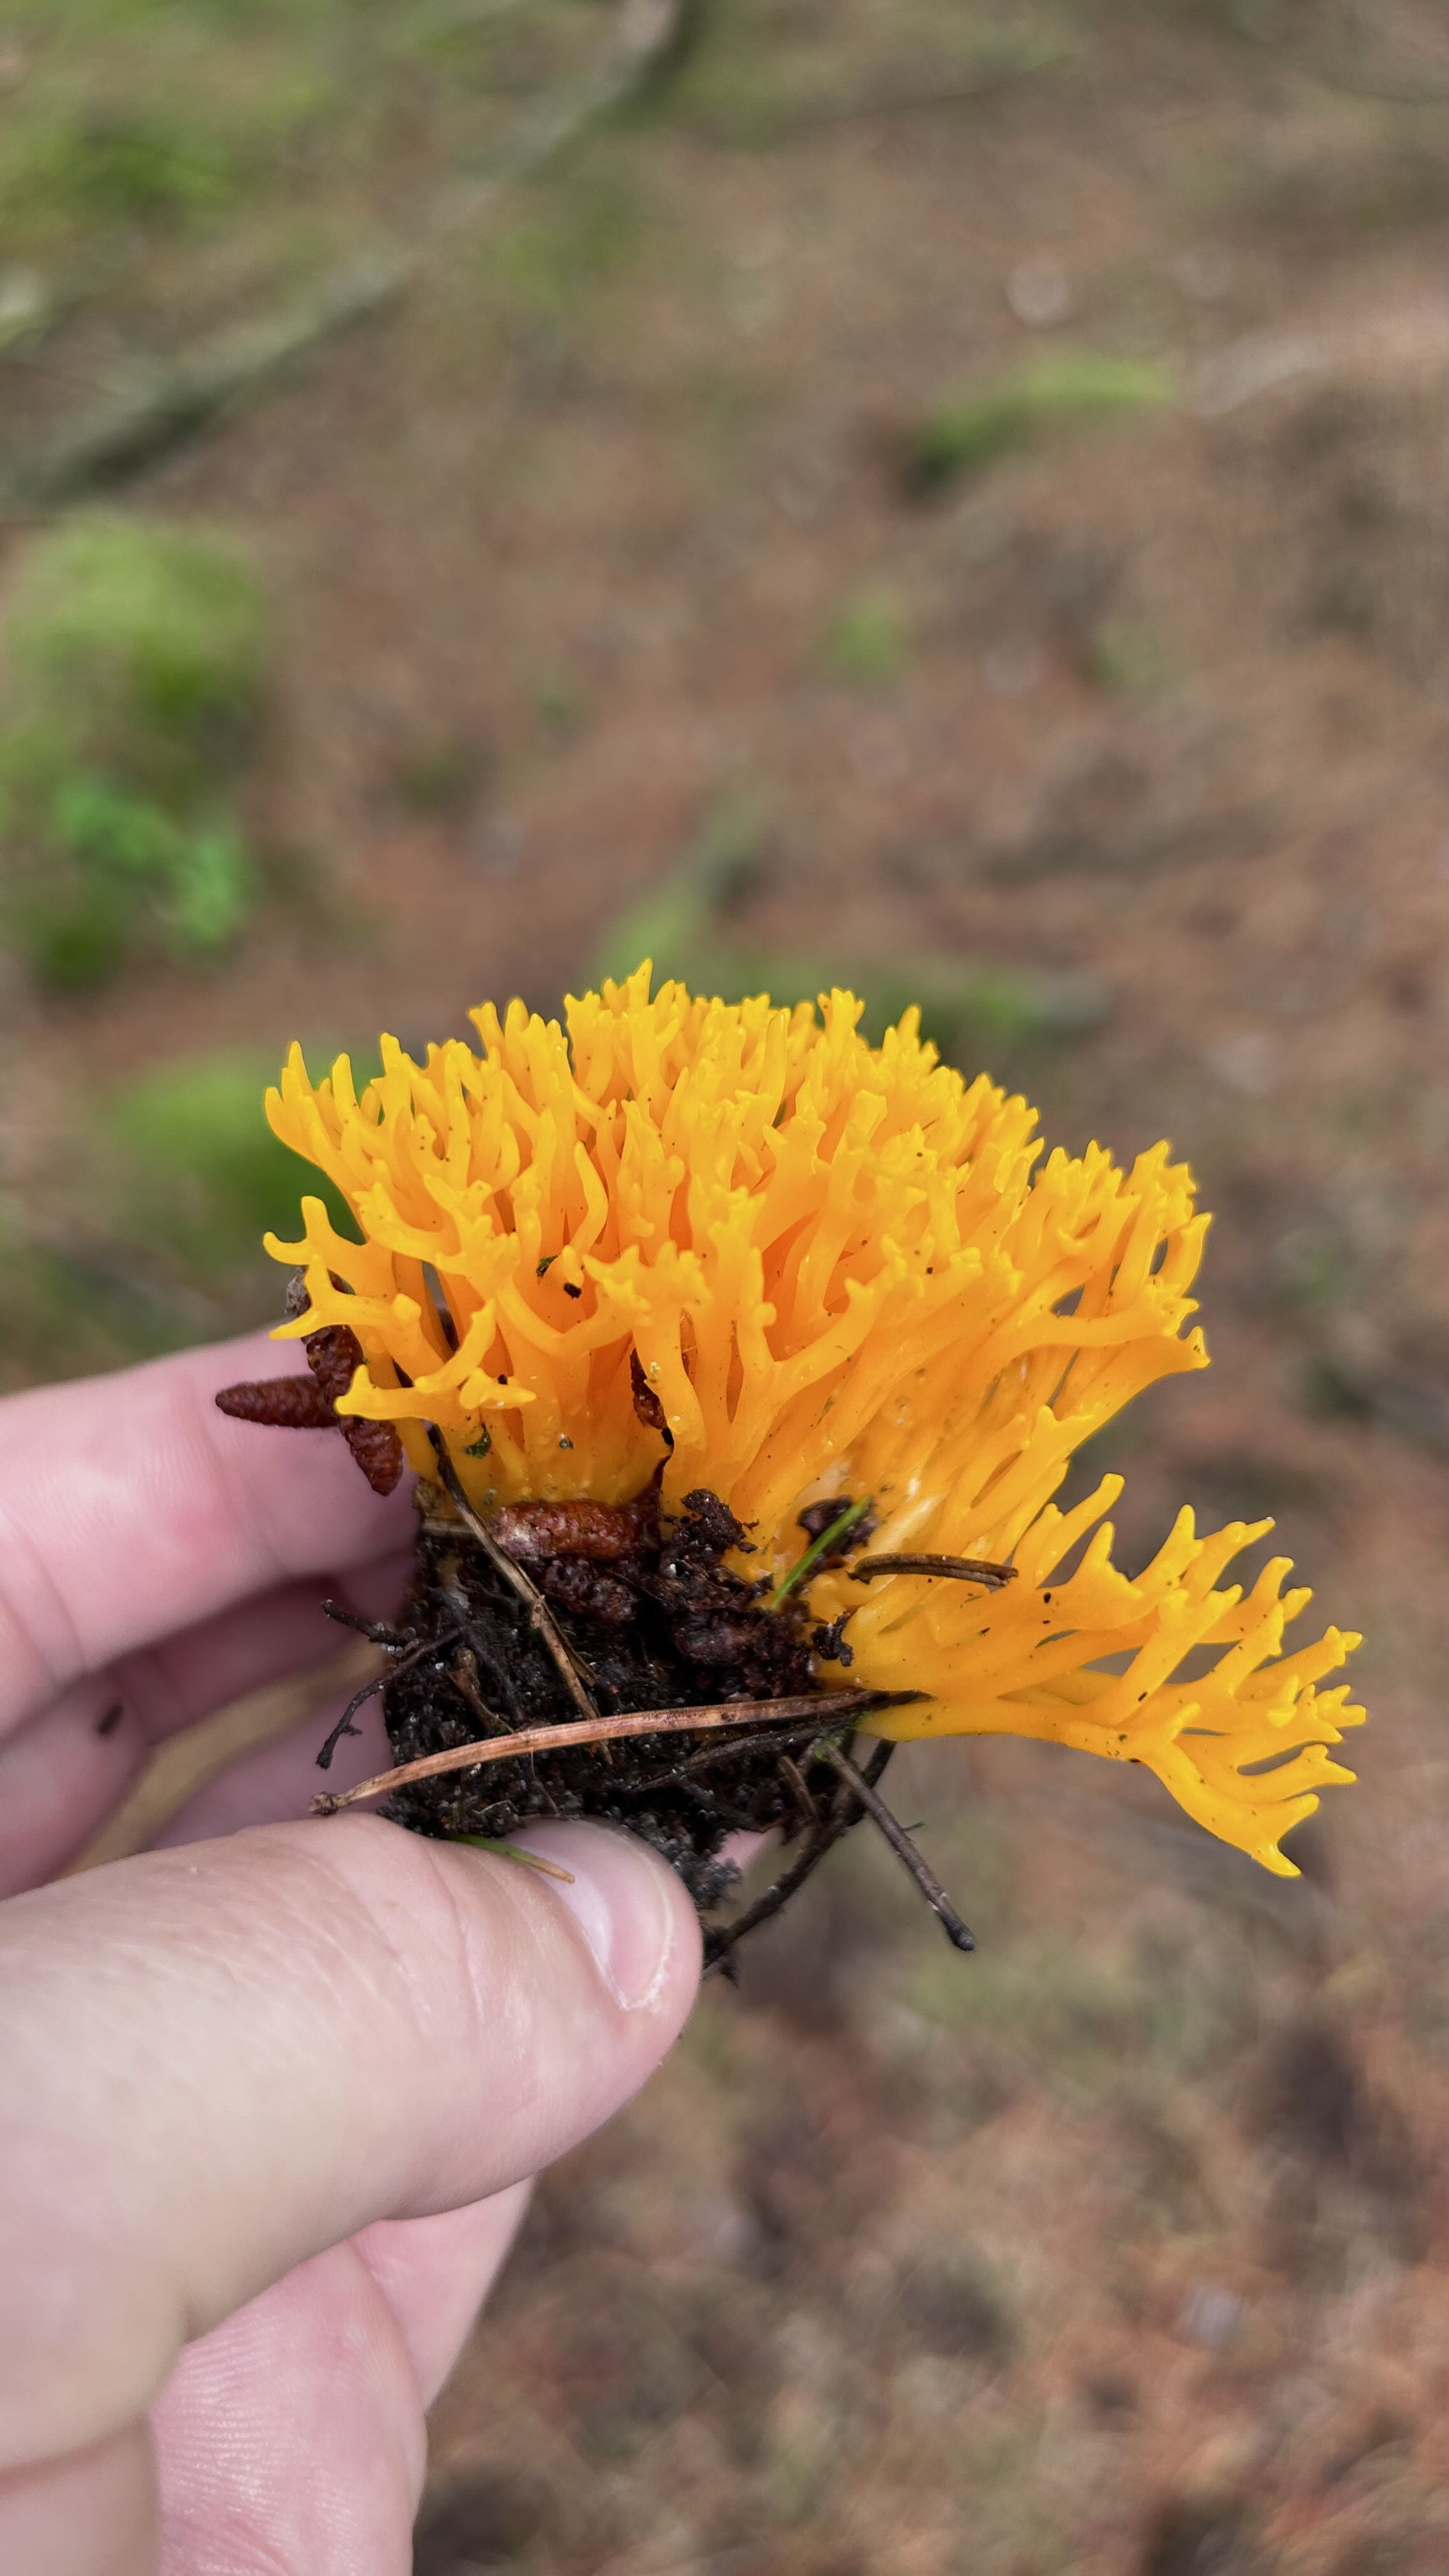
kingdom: Fungi
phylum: Basidiomycota
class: Dacrymycetes
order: Dacrymycetales
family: Dacrymycetaceae
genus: Calocera
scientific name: Calocera viscosa
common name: almindelig guldgaffel
